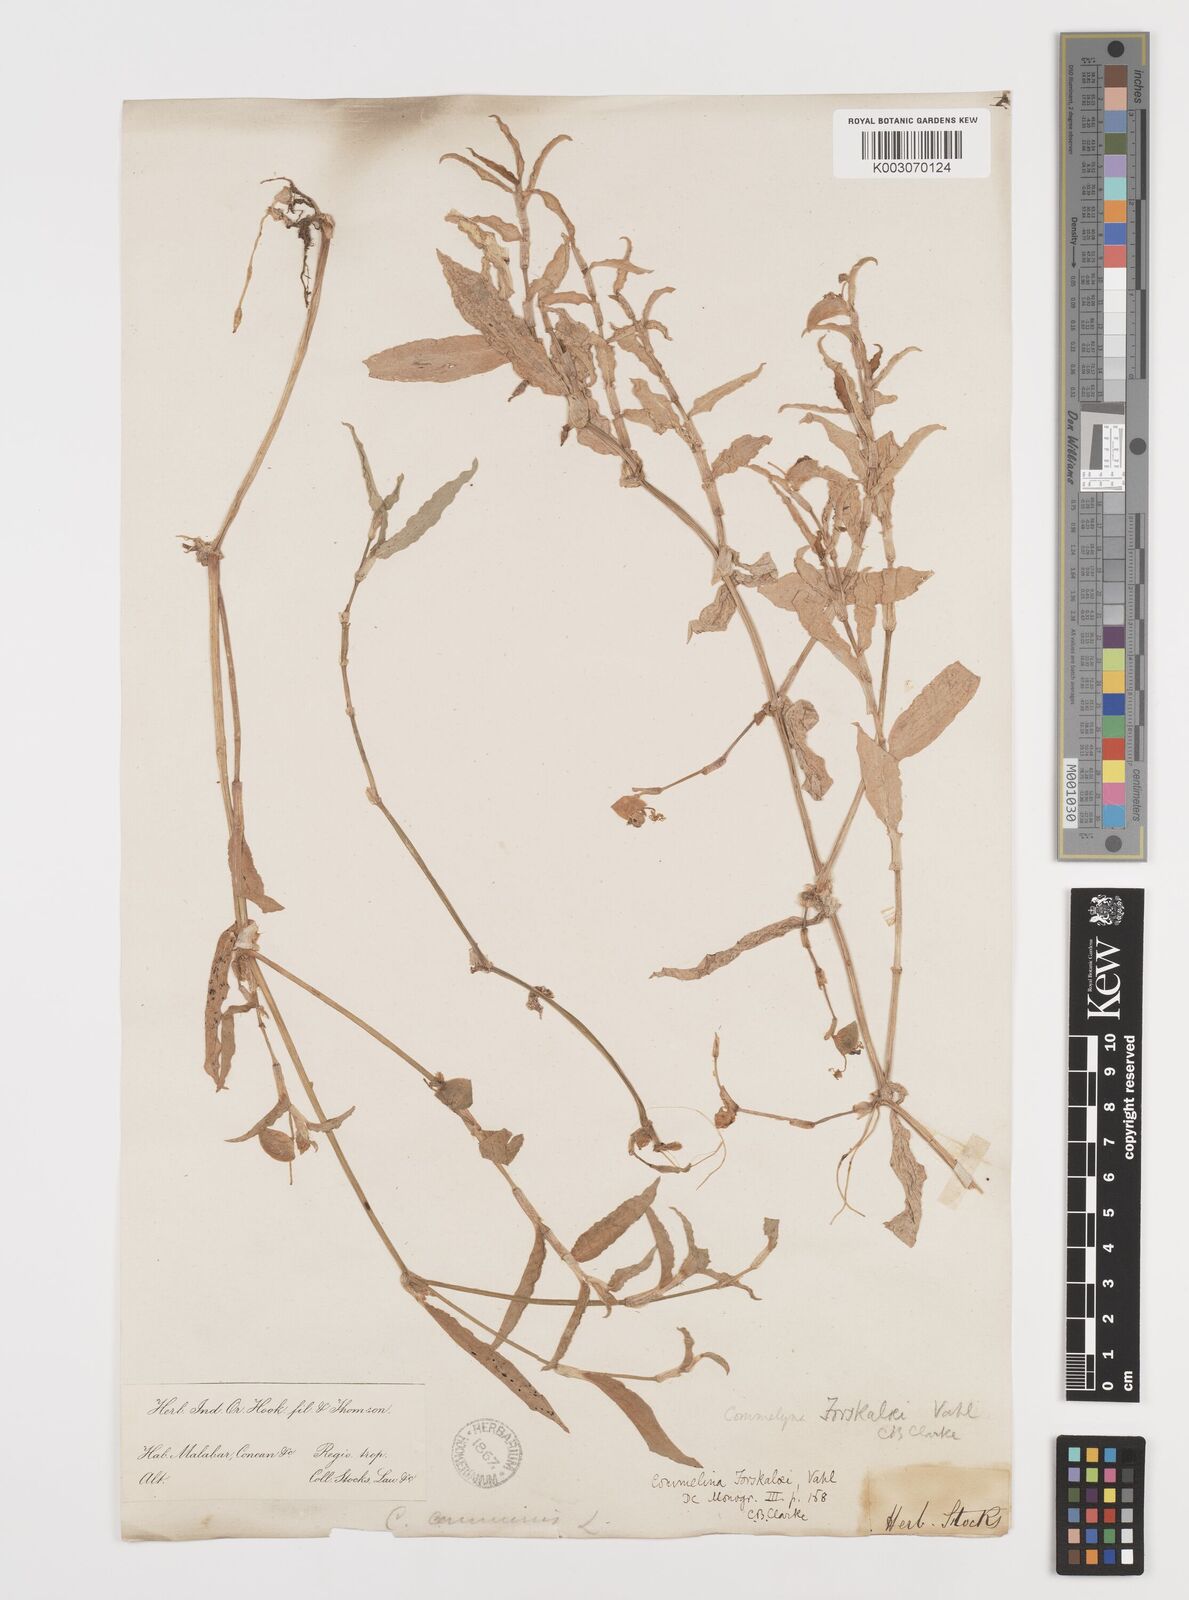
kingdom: Plantae
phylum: Tracheophyta
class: Liliopsida
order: Commelinales
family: Commelinaceae
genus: Commelina
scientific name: Commelina forskaolii
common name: Rat's ear
